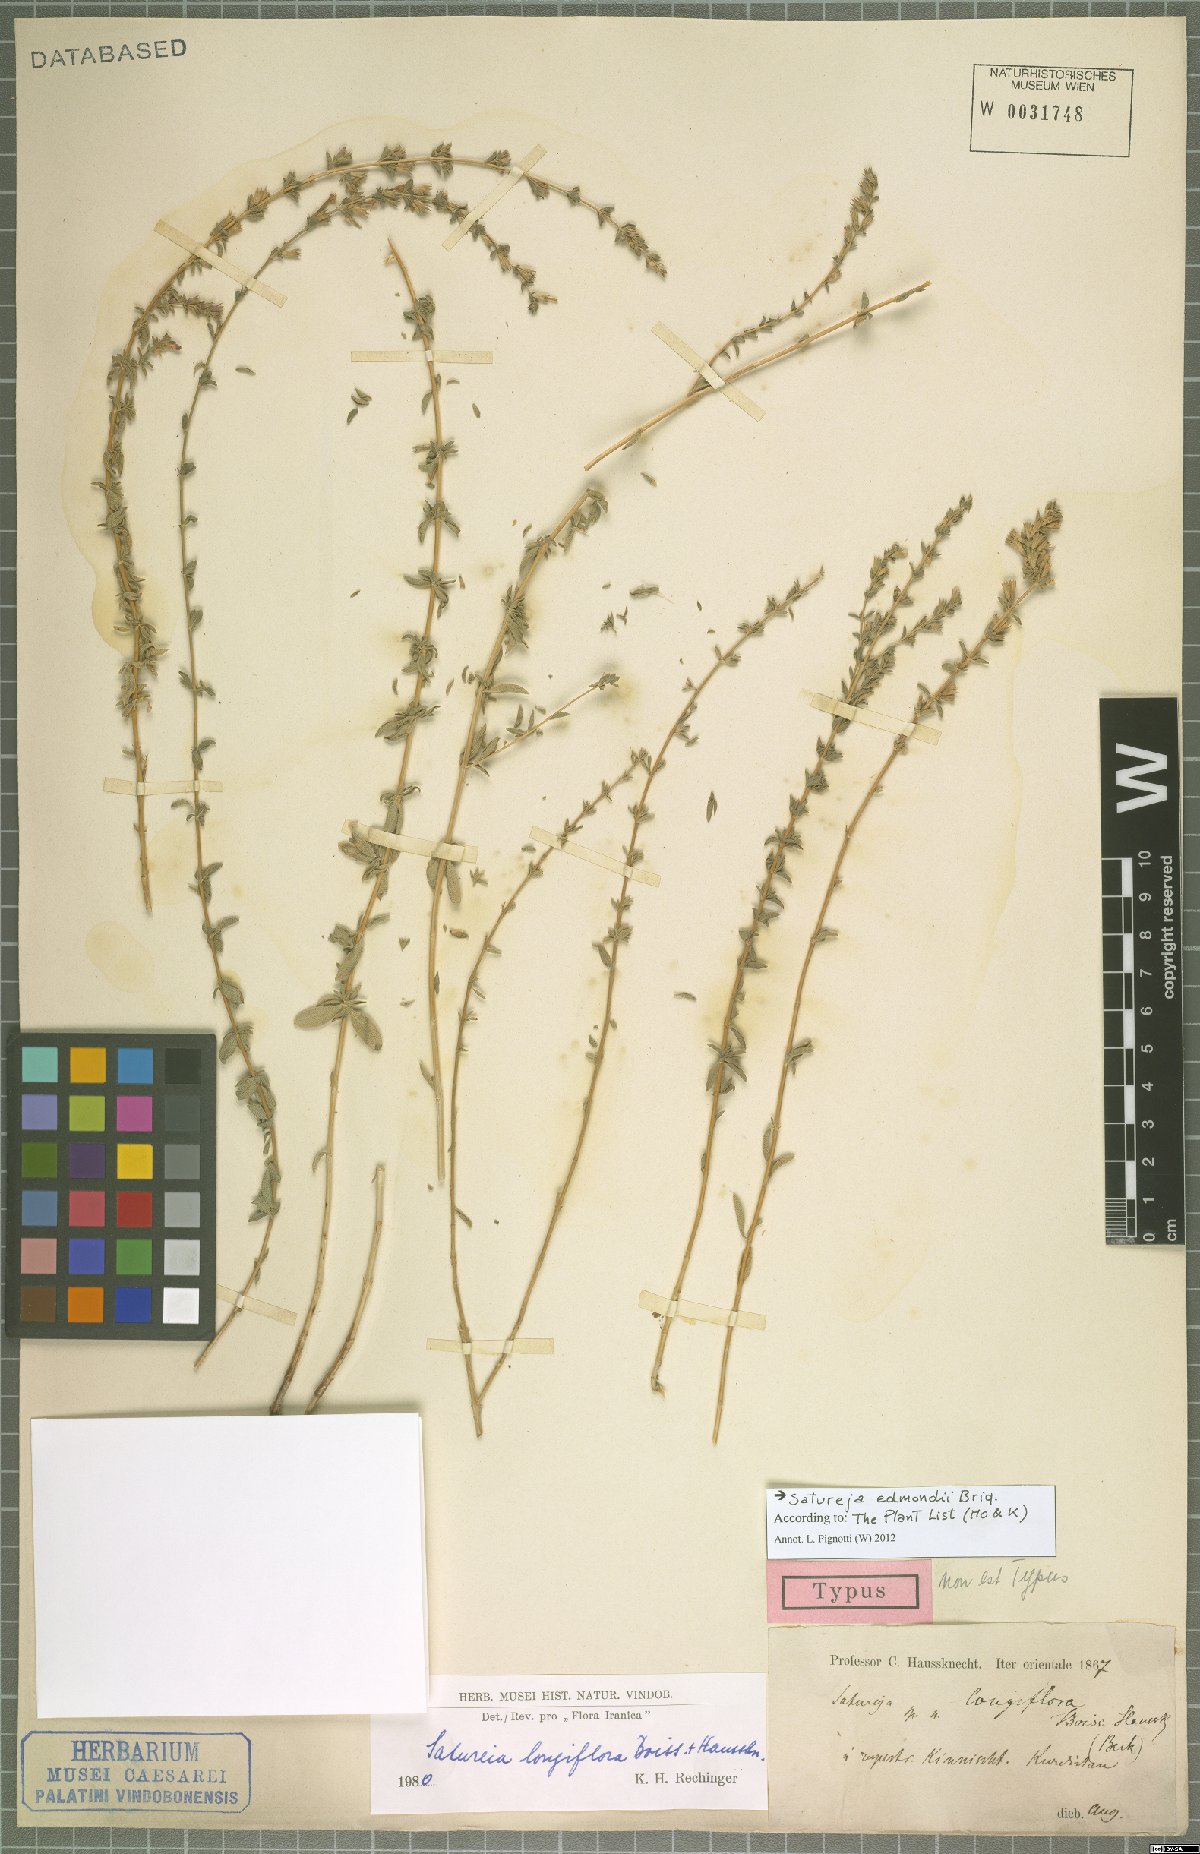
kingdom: Plantae
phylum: Tracheophyta
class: Magnoliopsida
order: Lamiales
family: Lamiaceae
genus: Satureja
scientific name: Satureja edmondii
